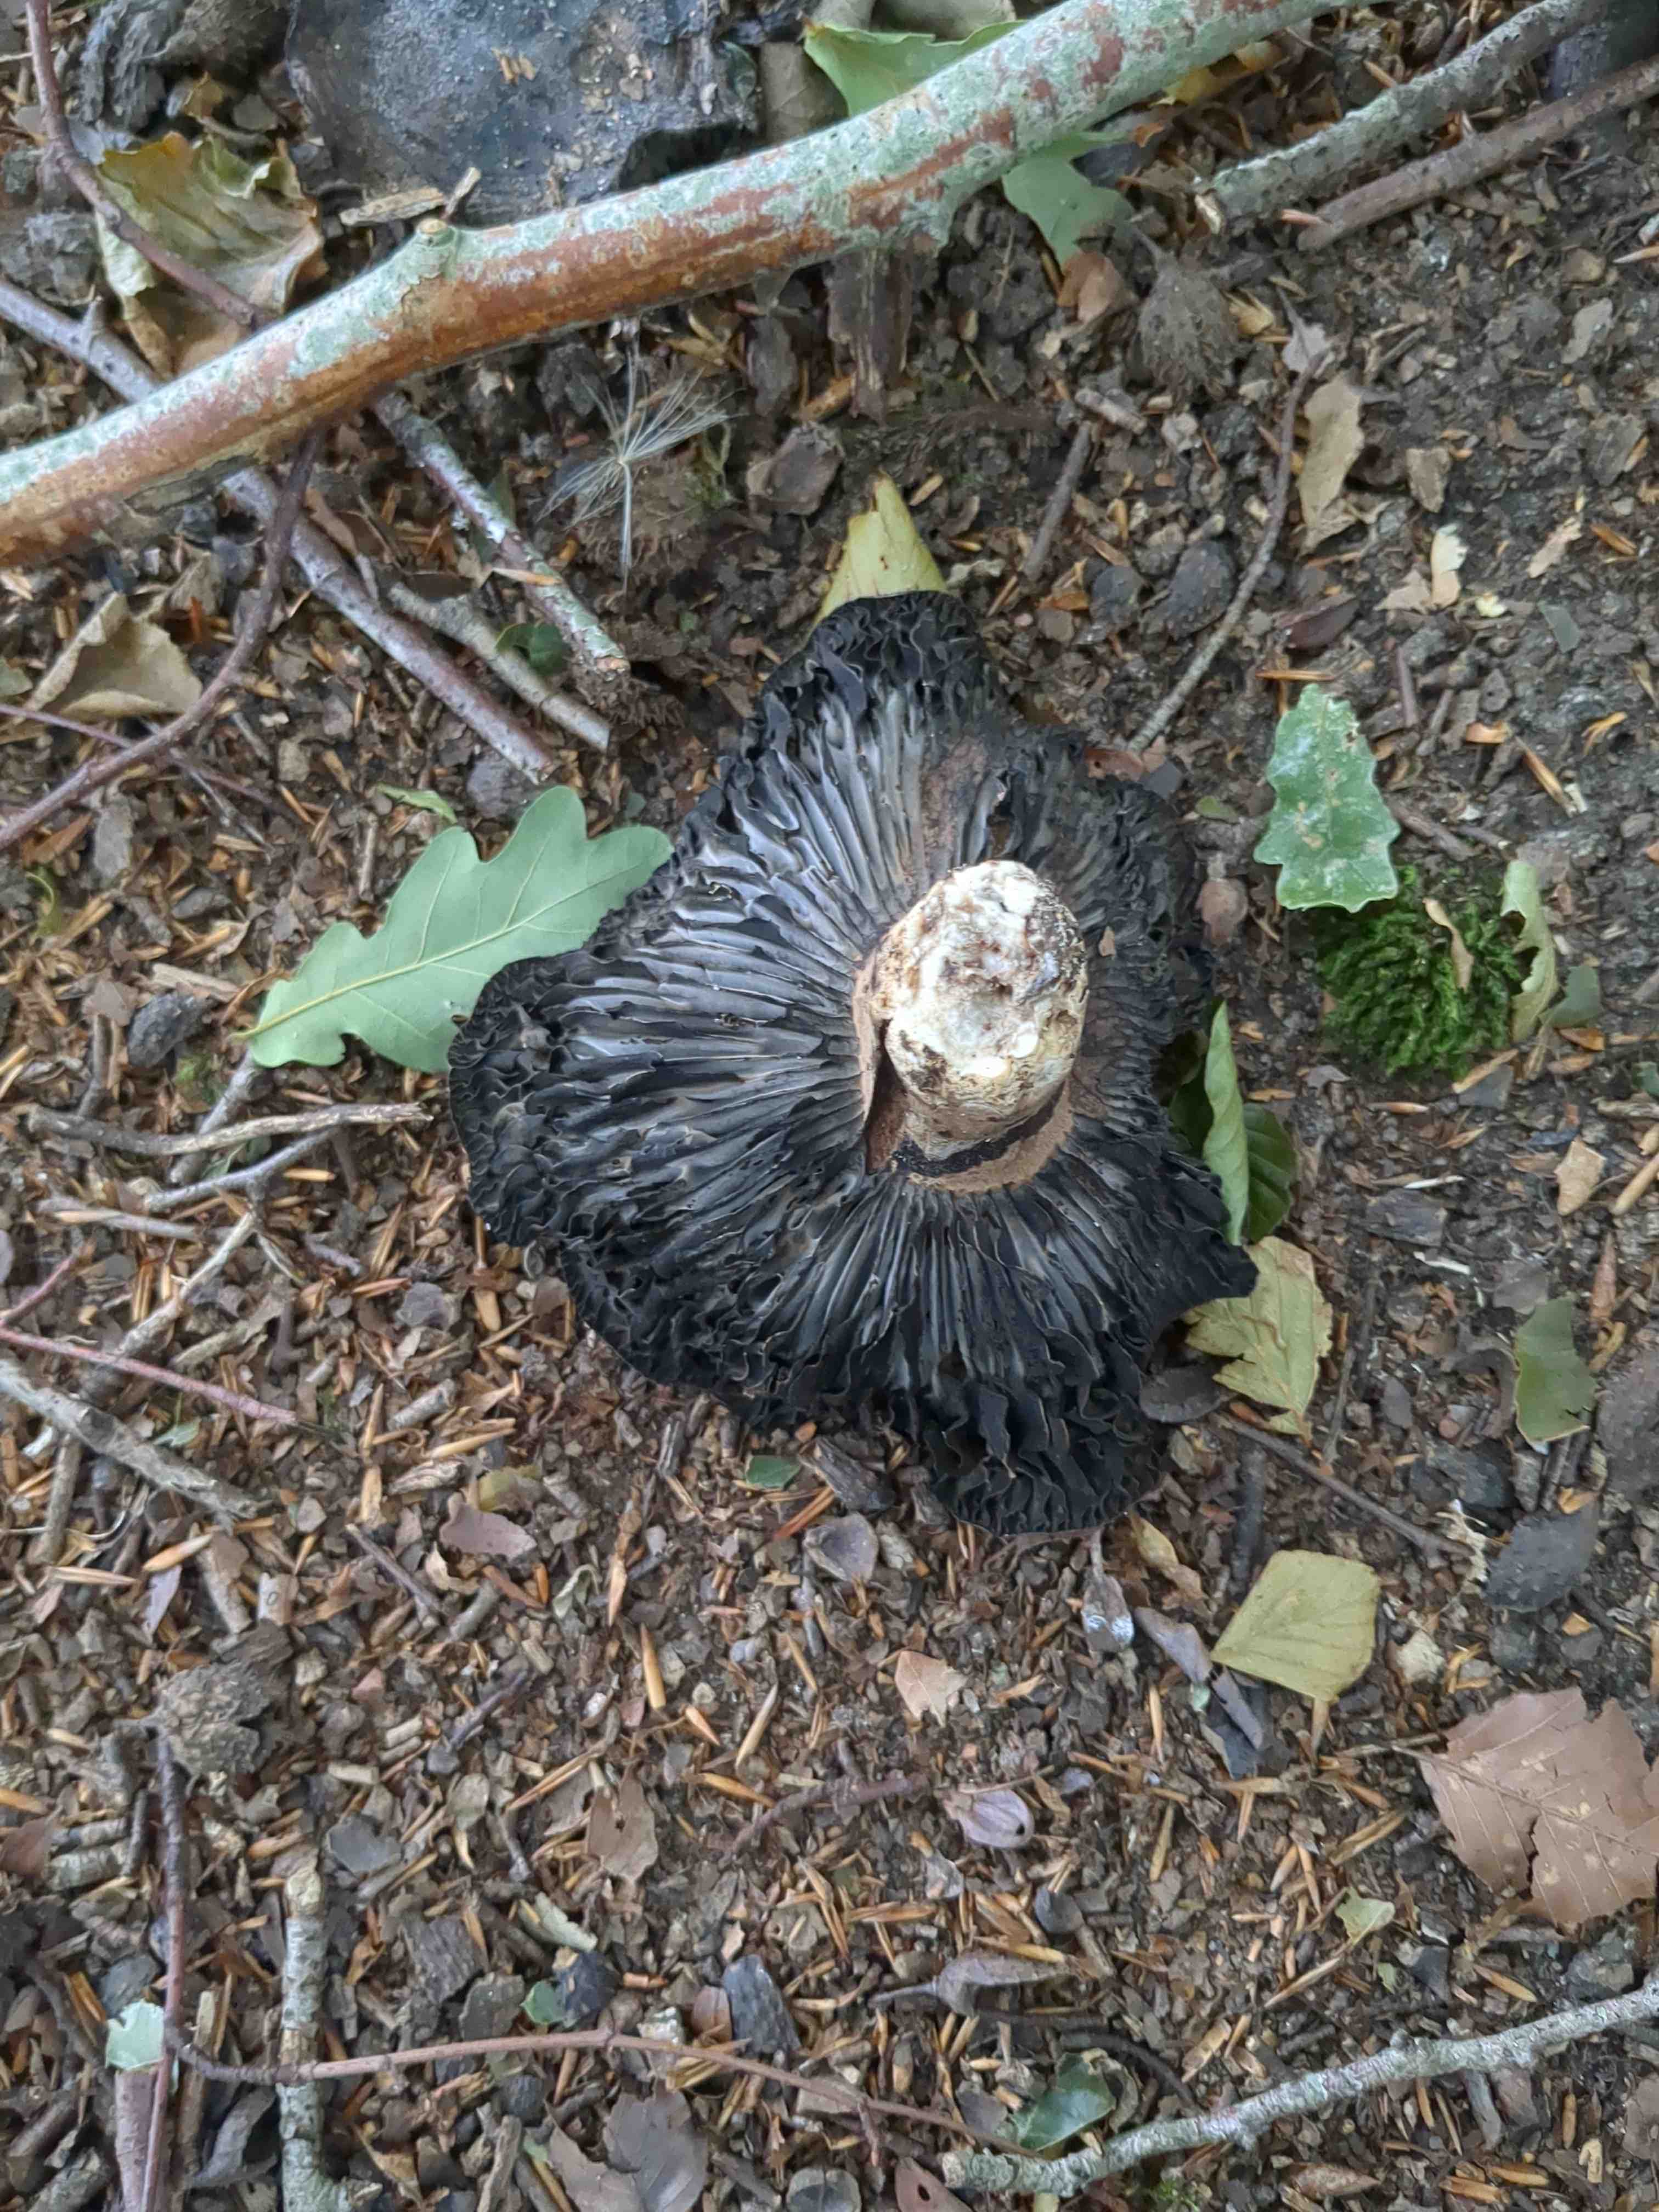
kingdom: Fungi
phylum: Basidiomycota
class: Agaricomycetes
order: Russulales
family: Russulaceae
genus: Russula
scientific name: Russula adusta
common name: sværtende skørhat
